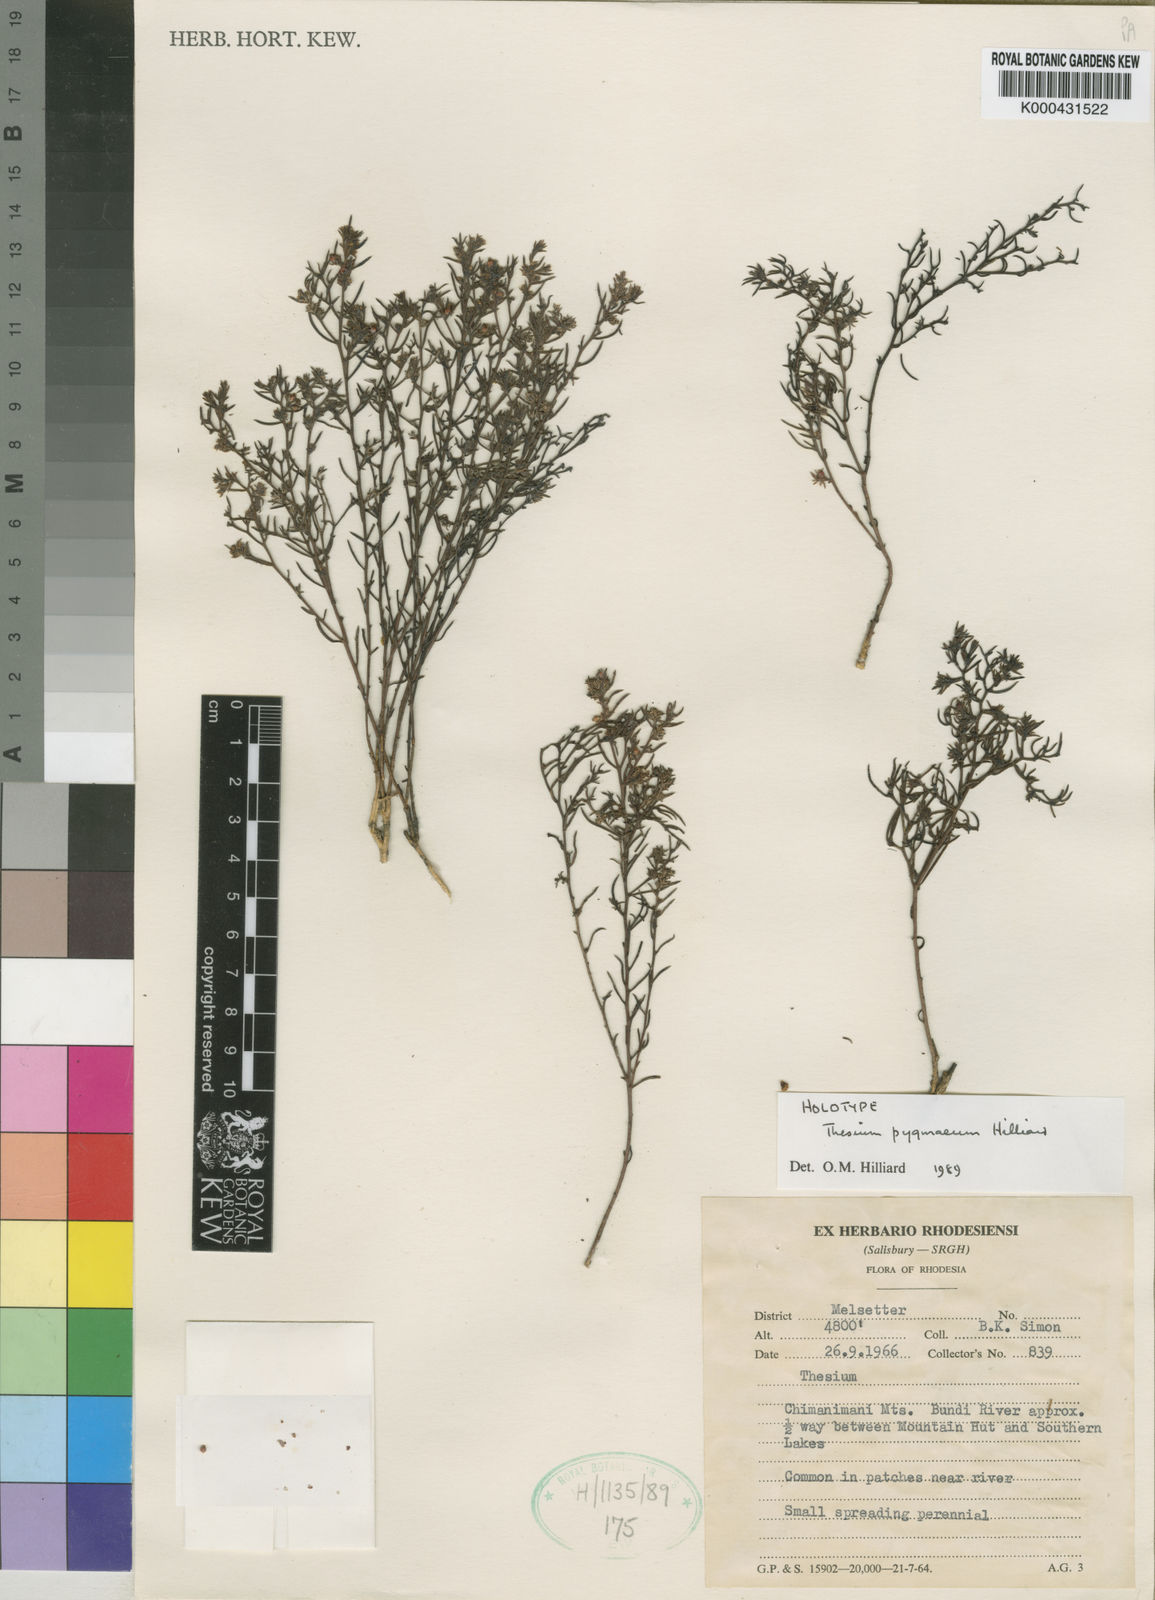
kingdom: Plantae
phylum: Tracheophyta
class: Magnoliopsida
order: Santalales
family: Thesiaceae
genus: Thesium
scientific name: Thesium pygmaeum
